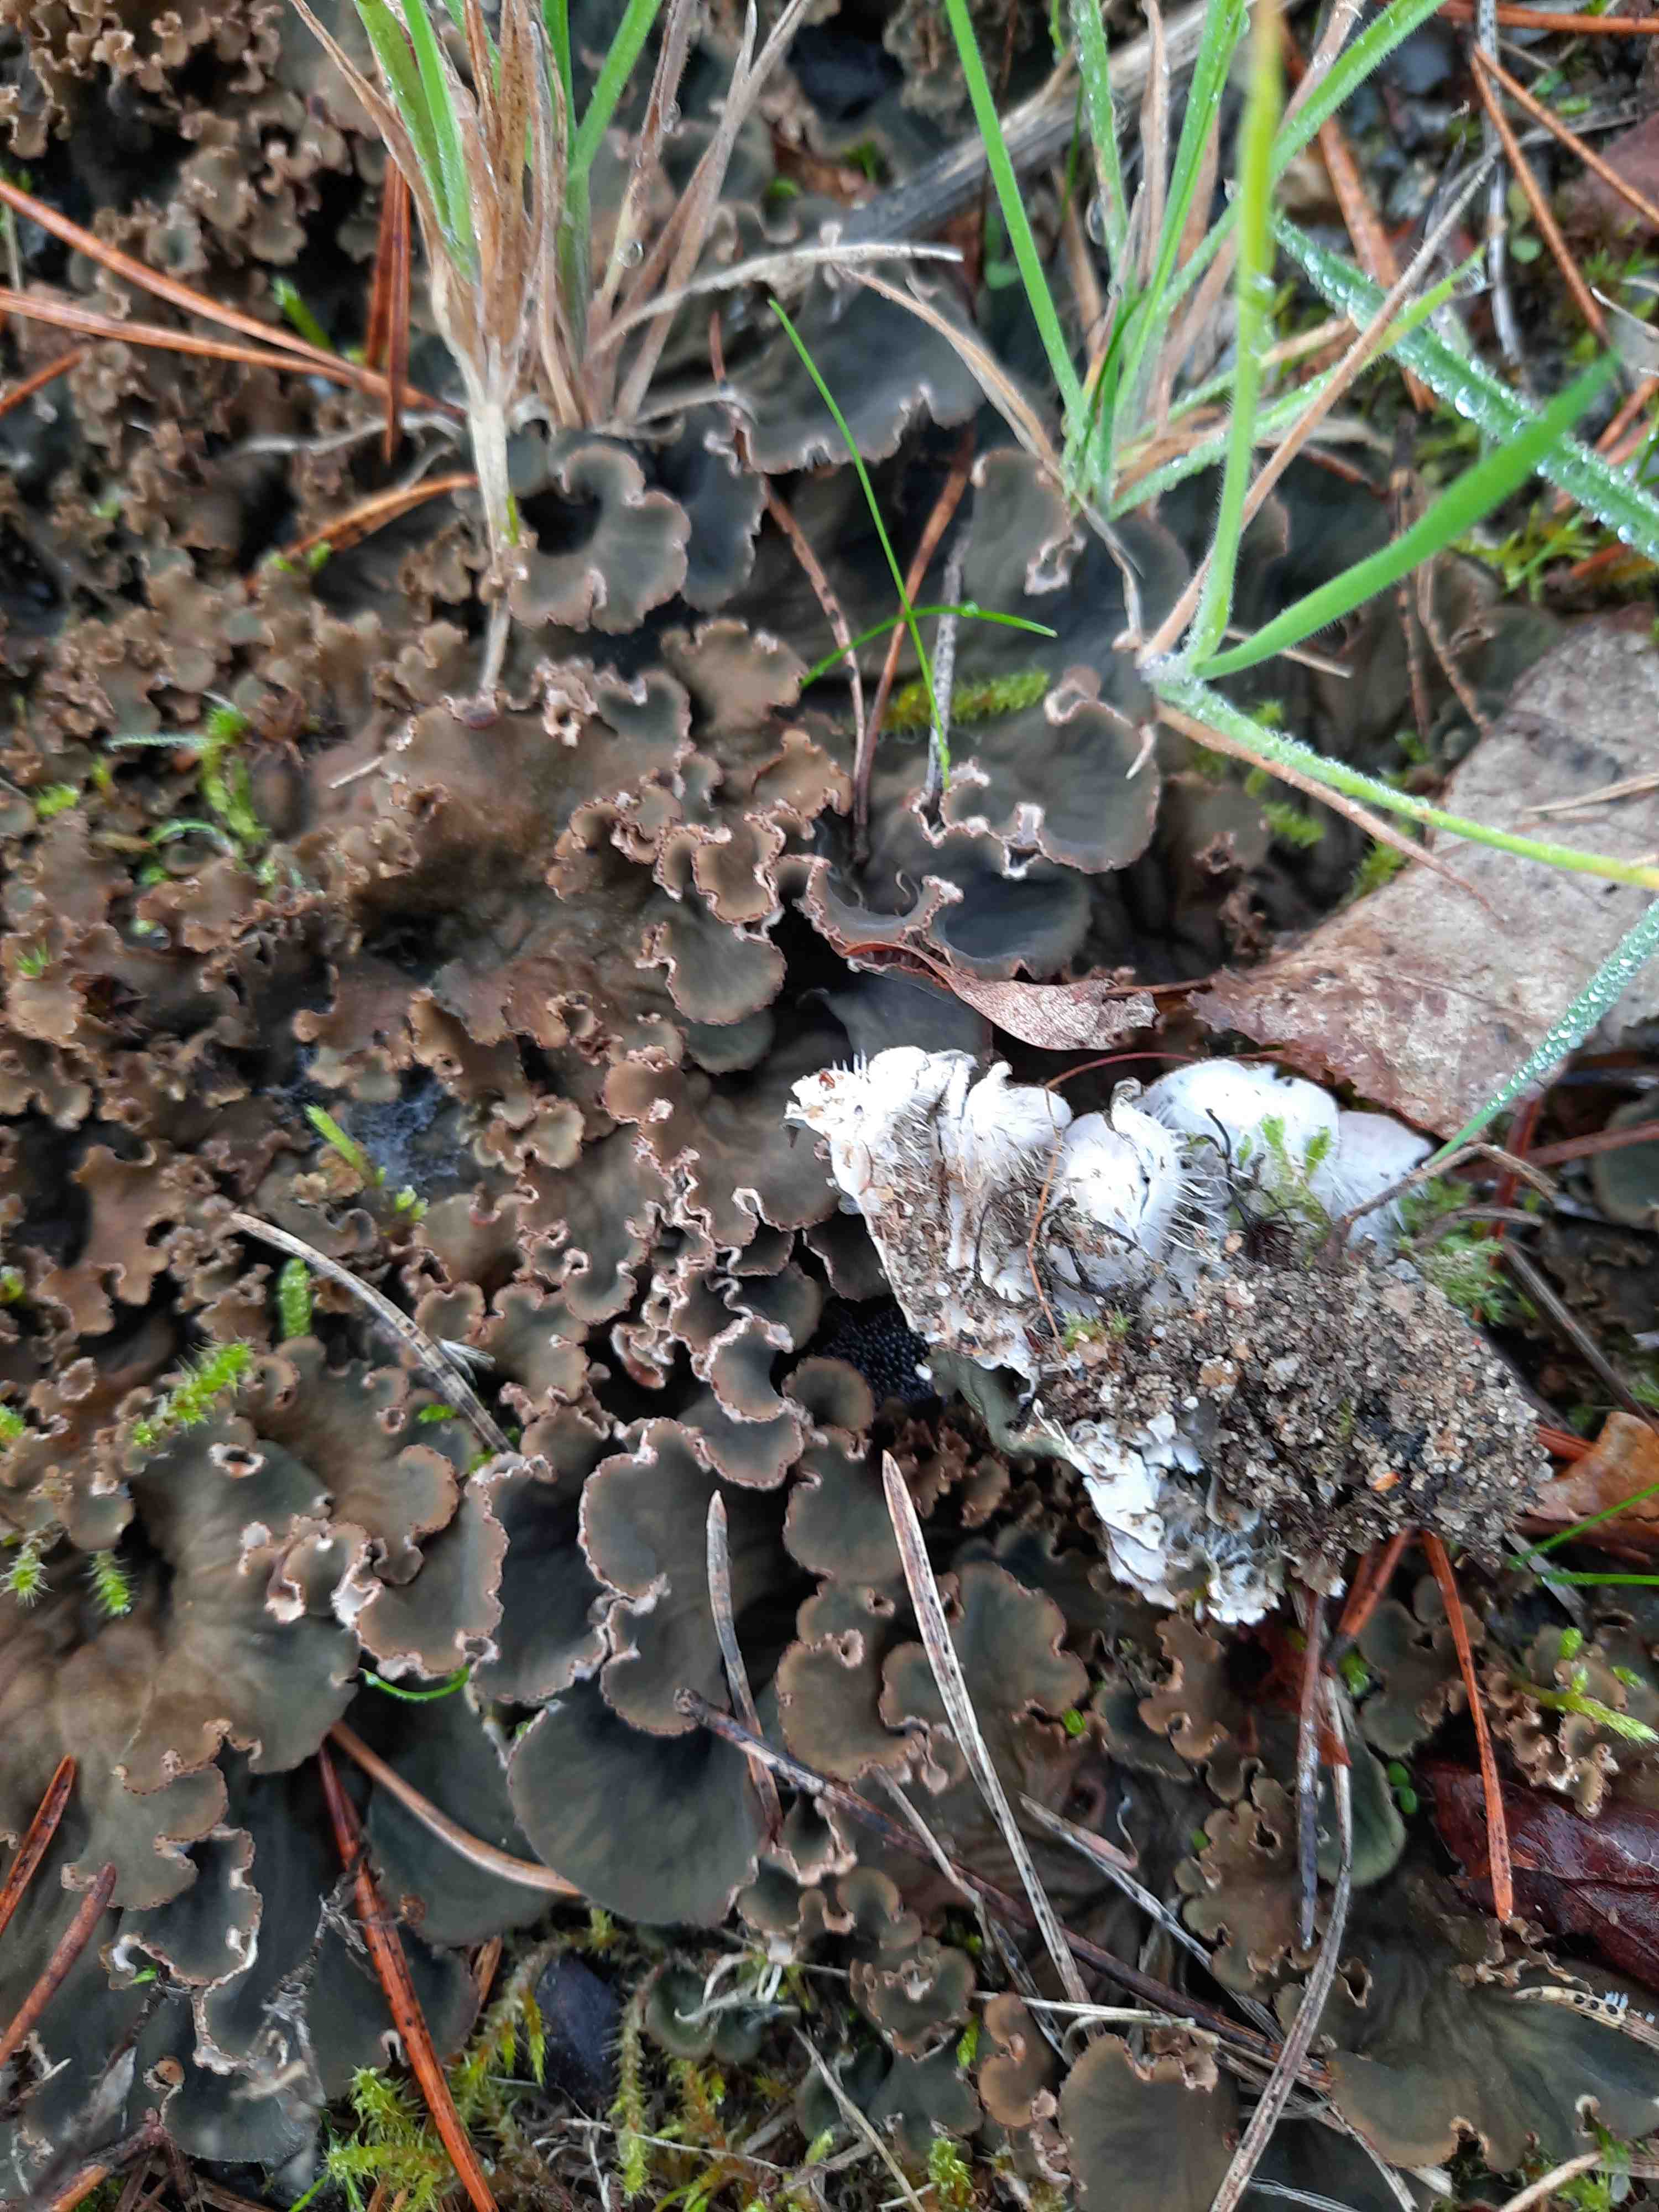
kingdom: Fungi
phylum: Ascomycota
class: Lecanoromycetes
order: Peltigerales
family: Peltigeraceae
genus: Peltigera
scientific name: Peltigera membranacea
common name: tynd skjoldlav
